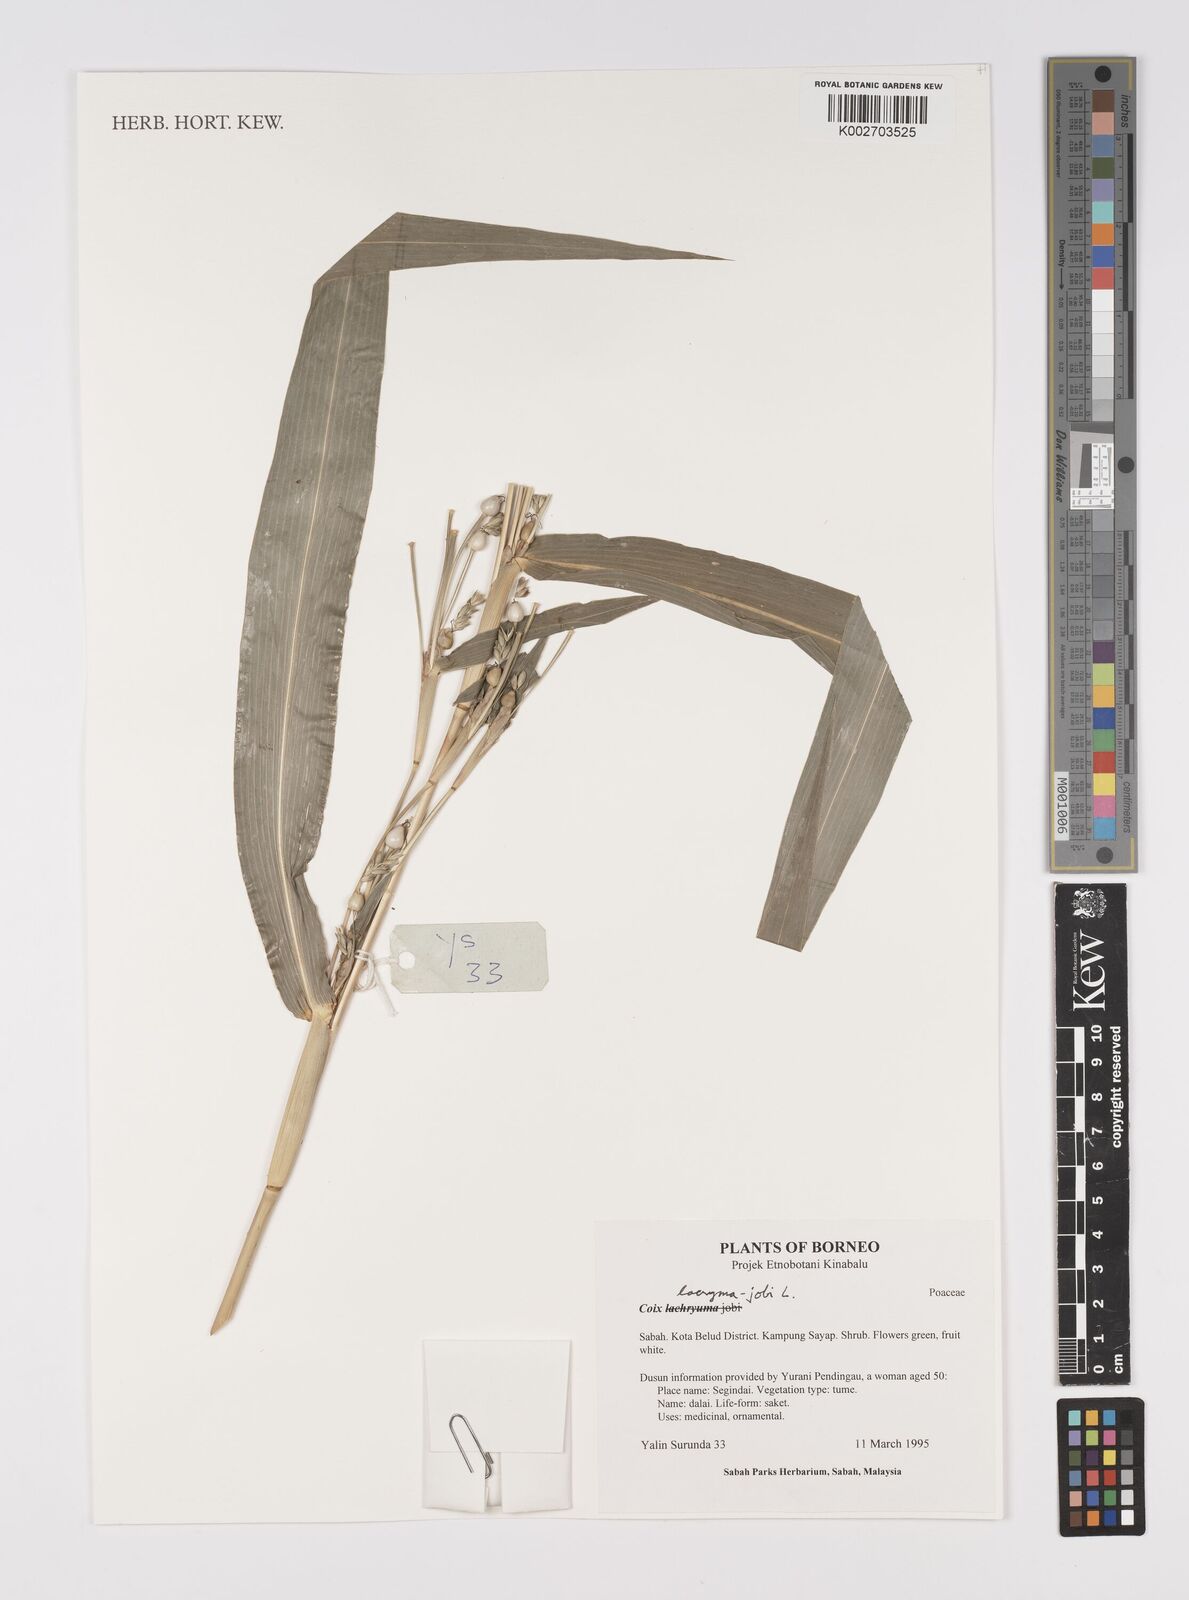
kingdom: Plantae
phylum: Tracheophyta
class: Liliopsida
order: Poales
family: Poaceae
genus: Coix
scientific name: Coix lacryma-jobi
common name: Job's tears
